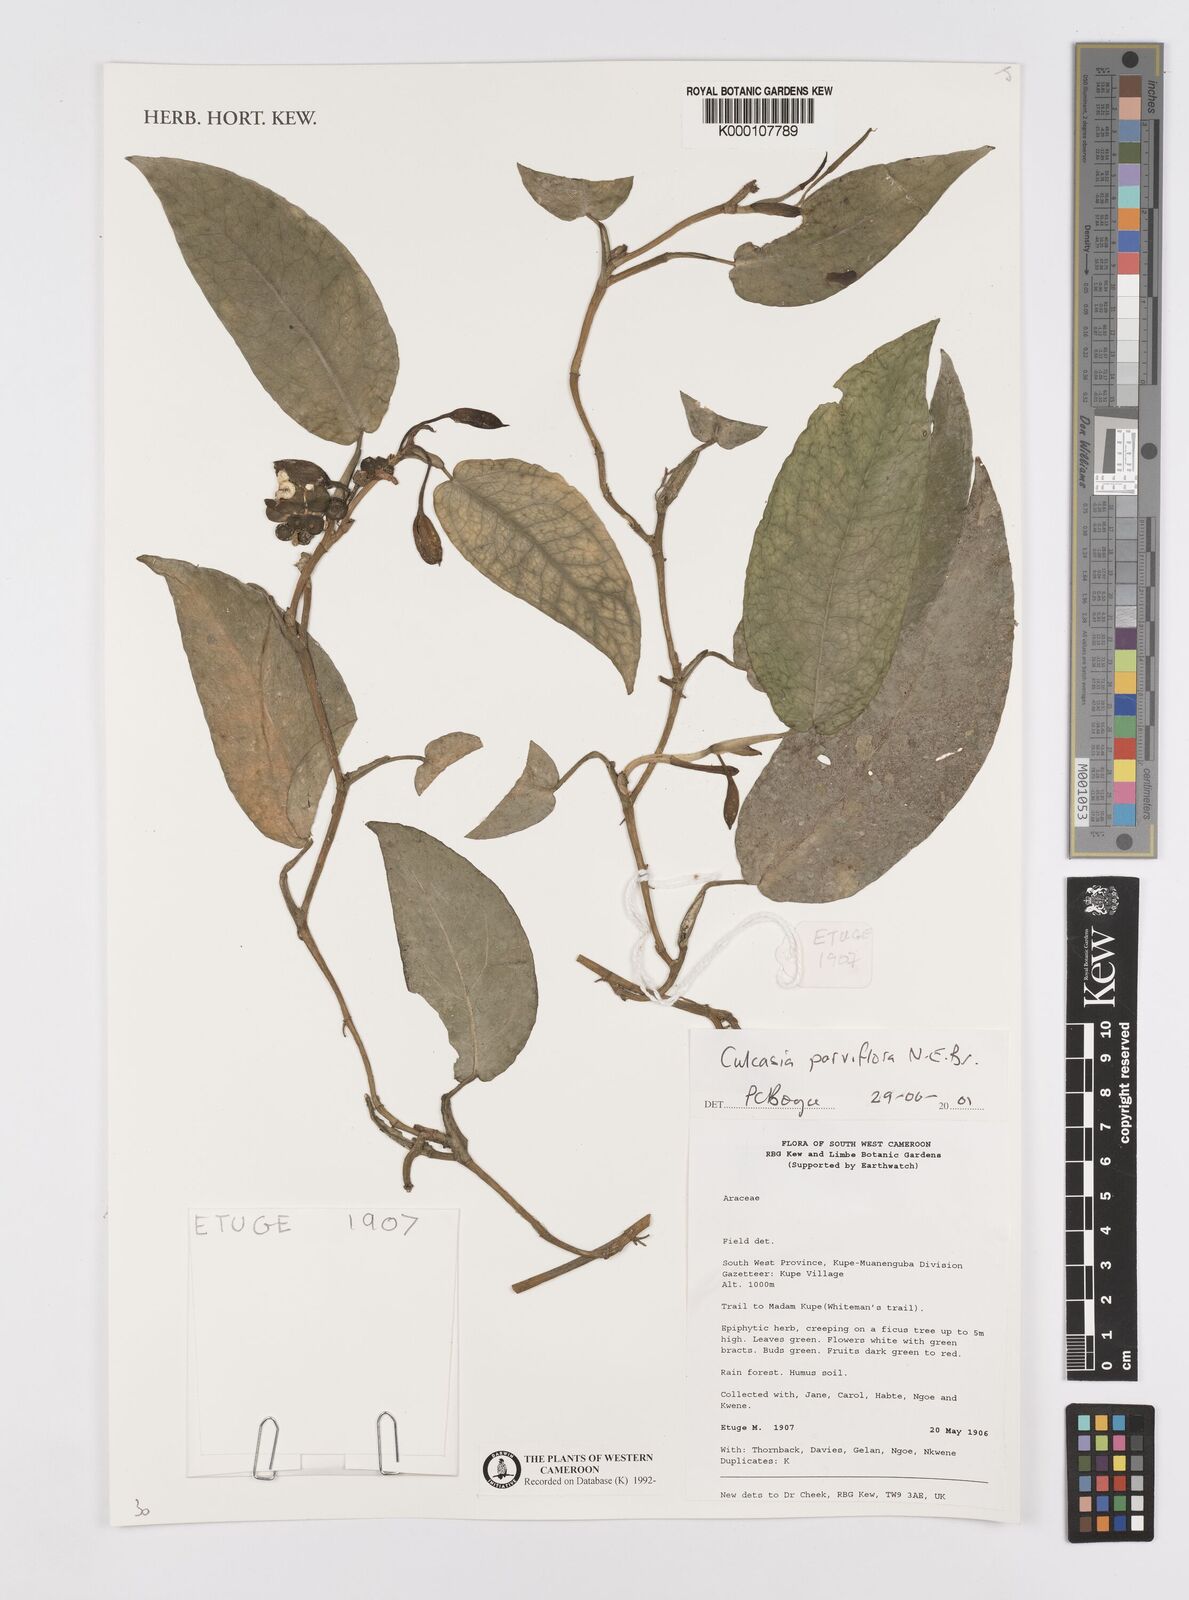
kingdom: Plantae
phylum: Tracheophyta
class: Liliopsida
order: Alismatales
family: Araceae
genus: Culcasia
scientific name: Culcasia parviflora
